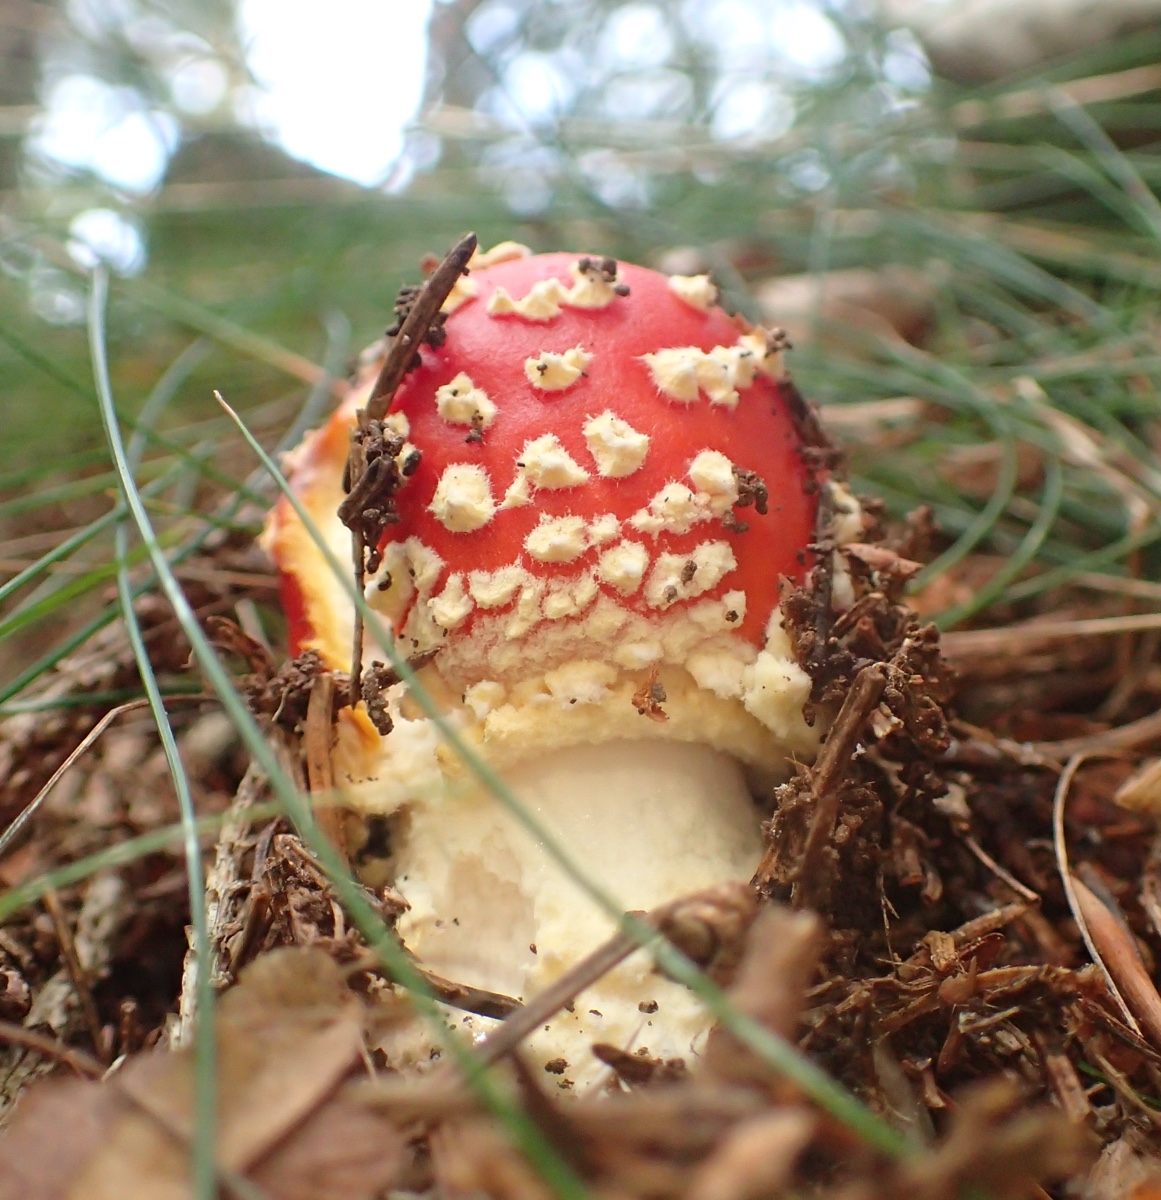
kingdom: Fungi
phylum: Basidiomycota
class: Agaricomycetes
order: Agaricales
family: Amanitaceae
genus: Amanita
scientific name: Amanita muscaria
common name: rød fluesvamp
